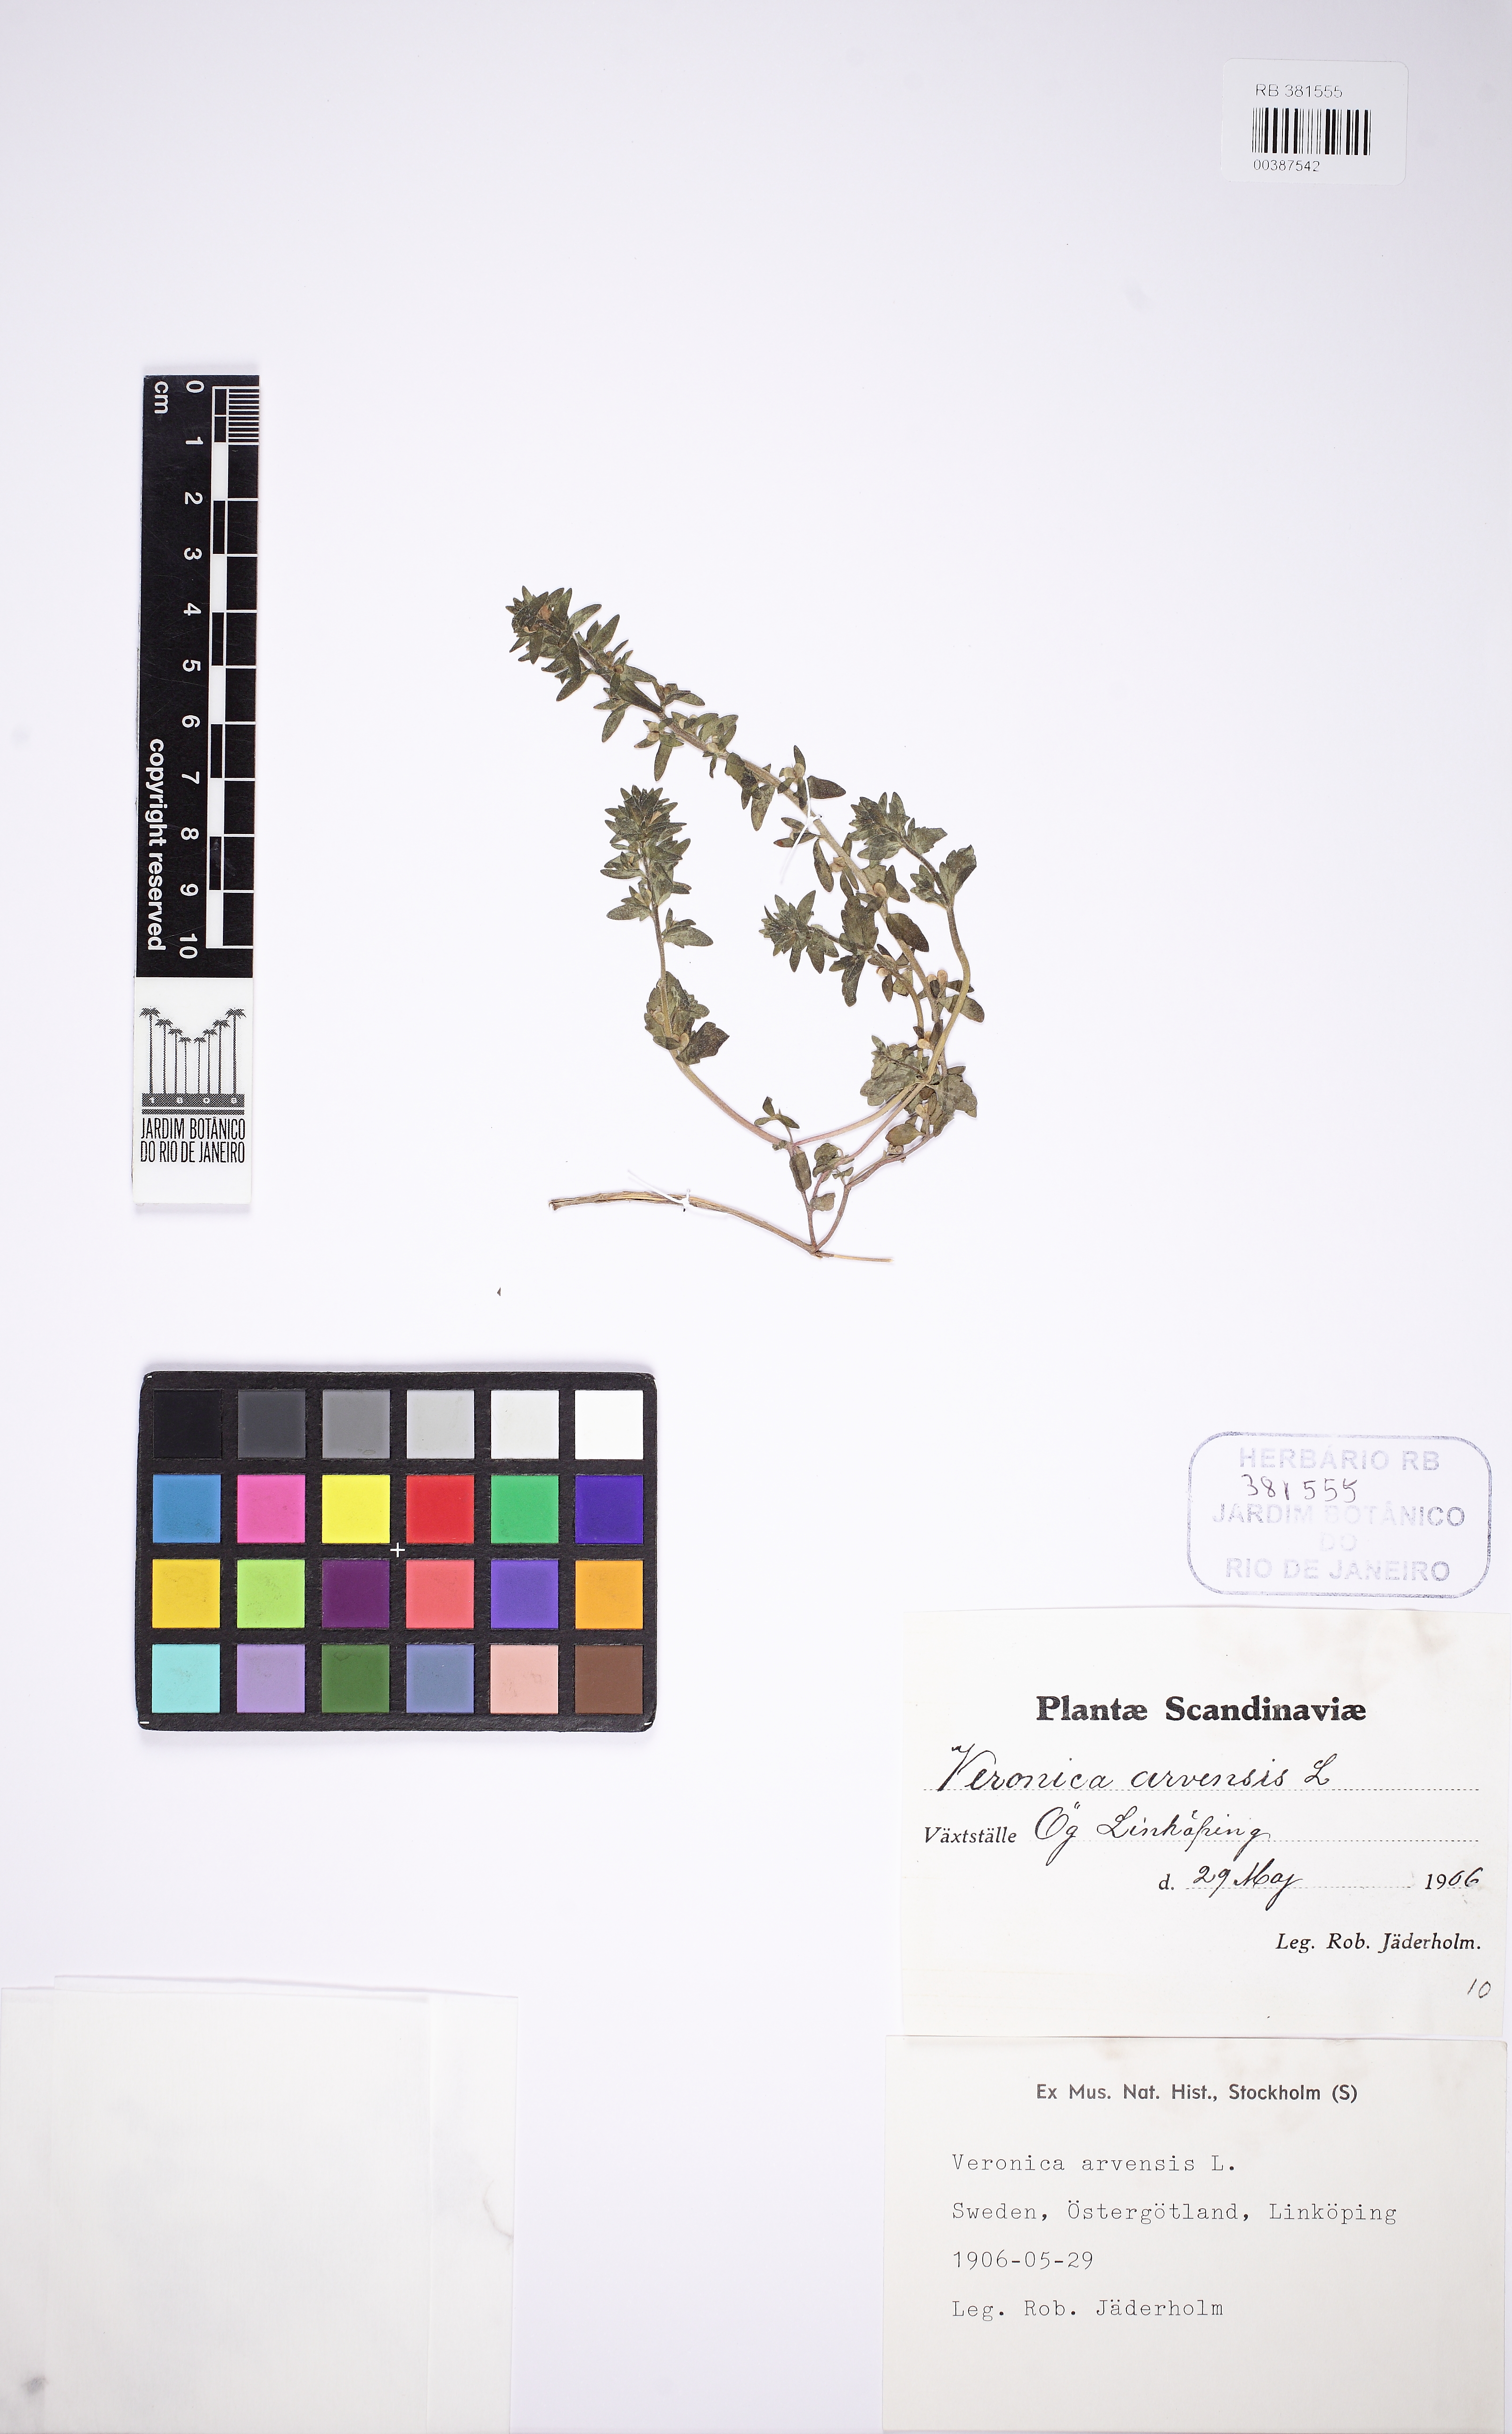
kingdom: Plantae
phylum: Tracheophyta
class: Magnoliopsida
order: Lamiales
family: Plantaginaceae
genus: Veronica
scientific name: Veronica arvensis
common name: Corn speedwell
